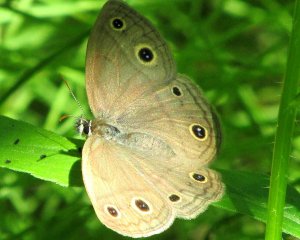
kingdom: Animalia
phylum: Arthropoda
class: Insecta
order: Lepidoptera
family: Nymphalidae
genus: Euptychia
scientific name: Euptychia cymela
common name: Little Wood Satyr
